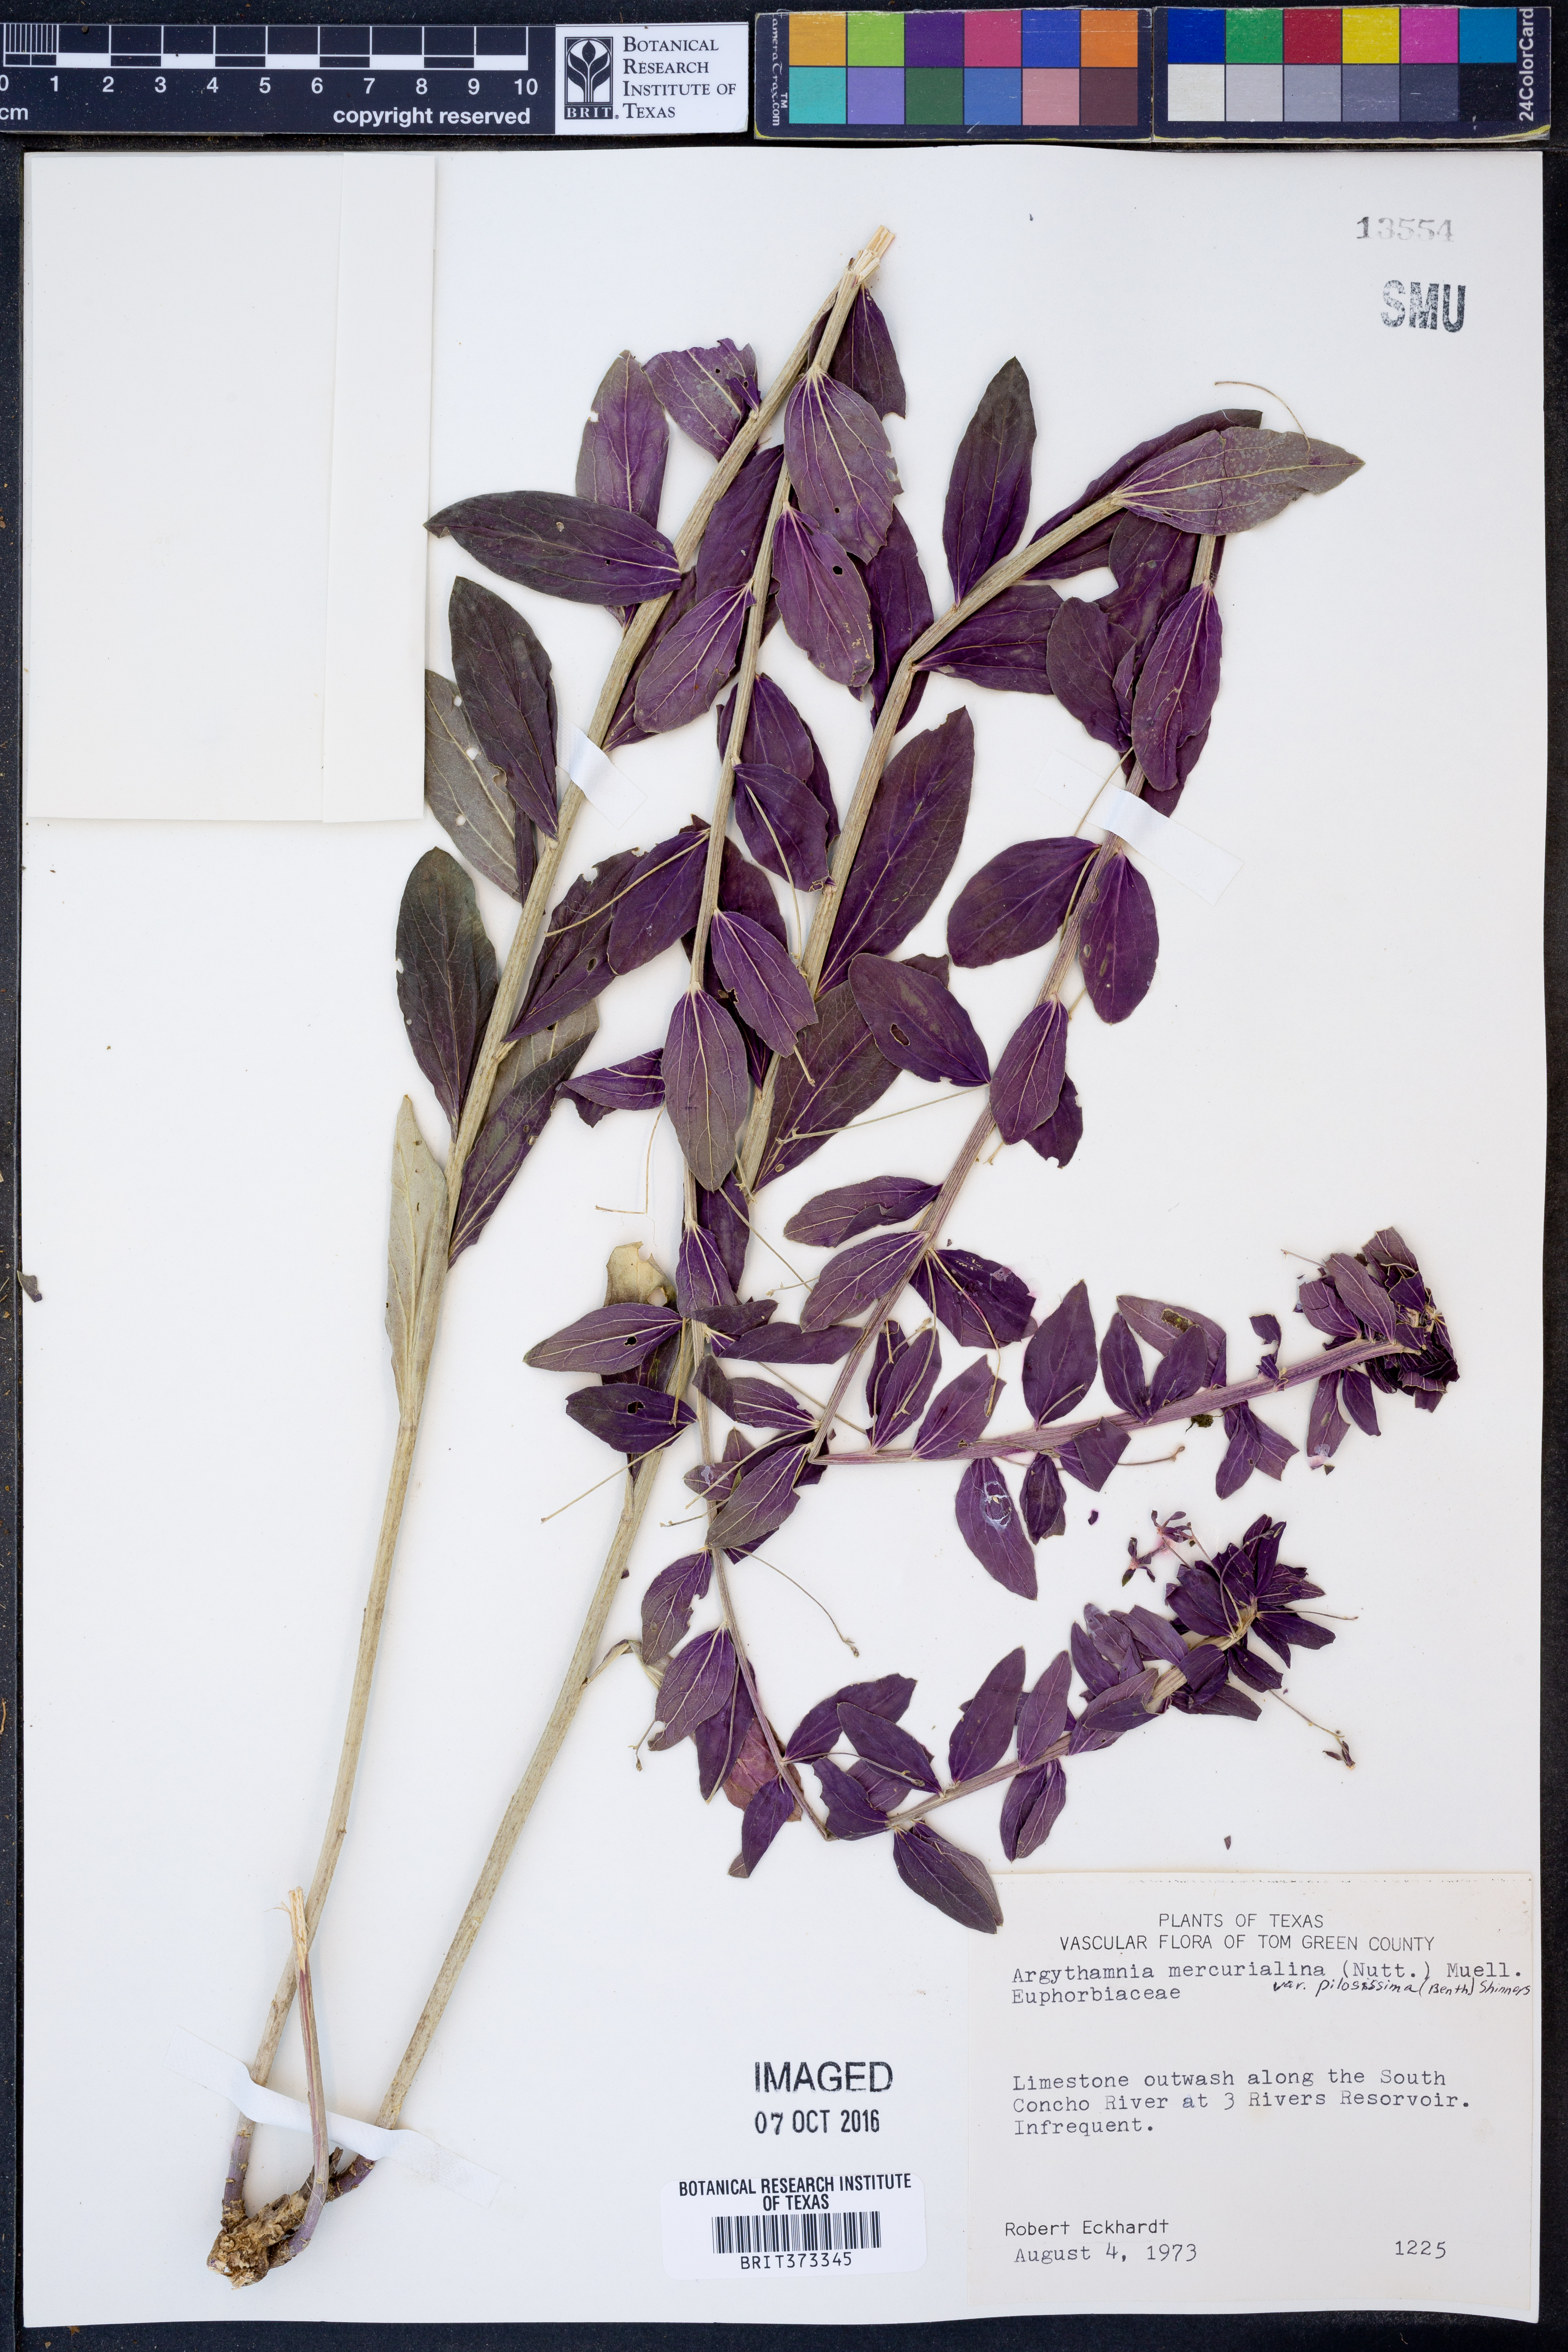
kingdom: Plantae
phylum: Tracheophyta
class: Magnoliopsida
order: Malpighiales
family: Euphorbiaceae
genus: Ditaxis
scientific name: Ditaxis pilosissima
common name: Tall silverbush
